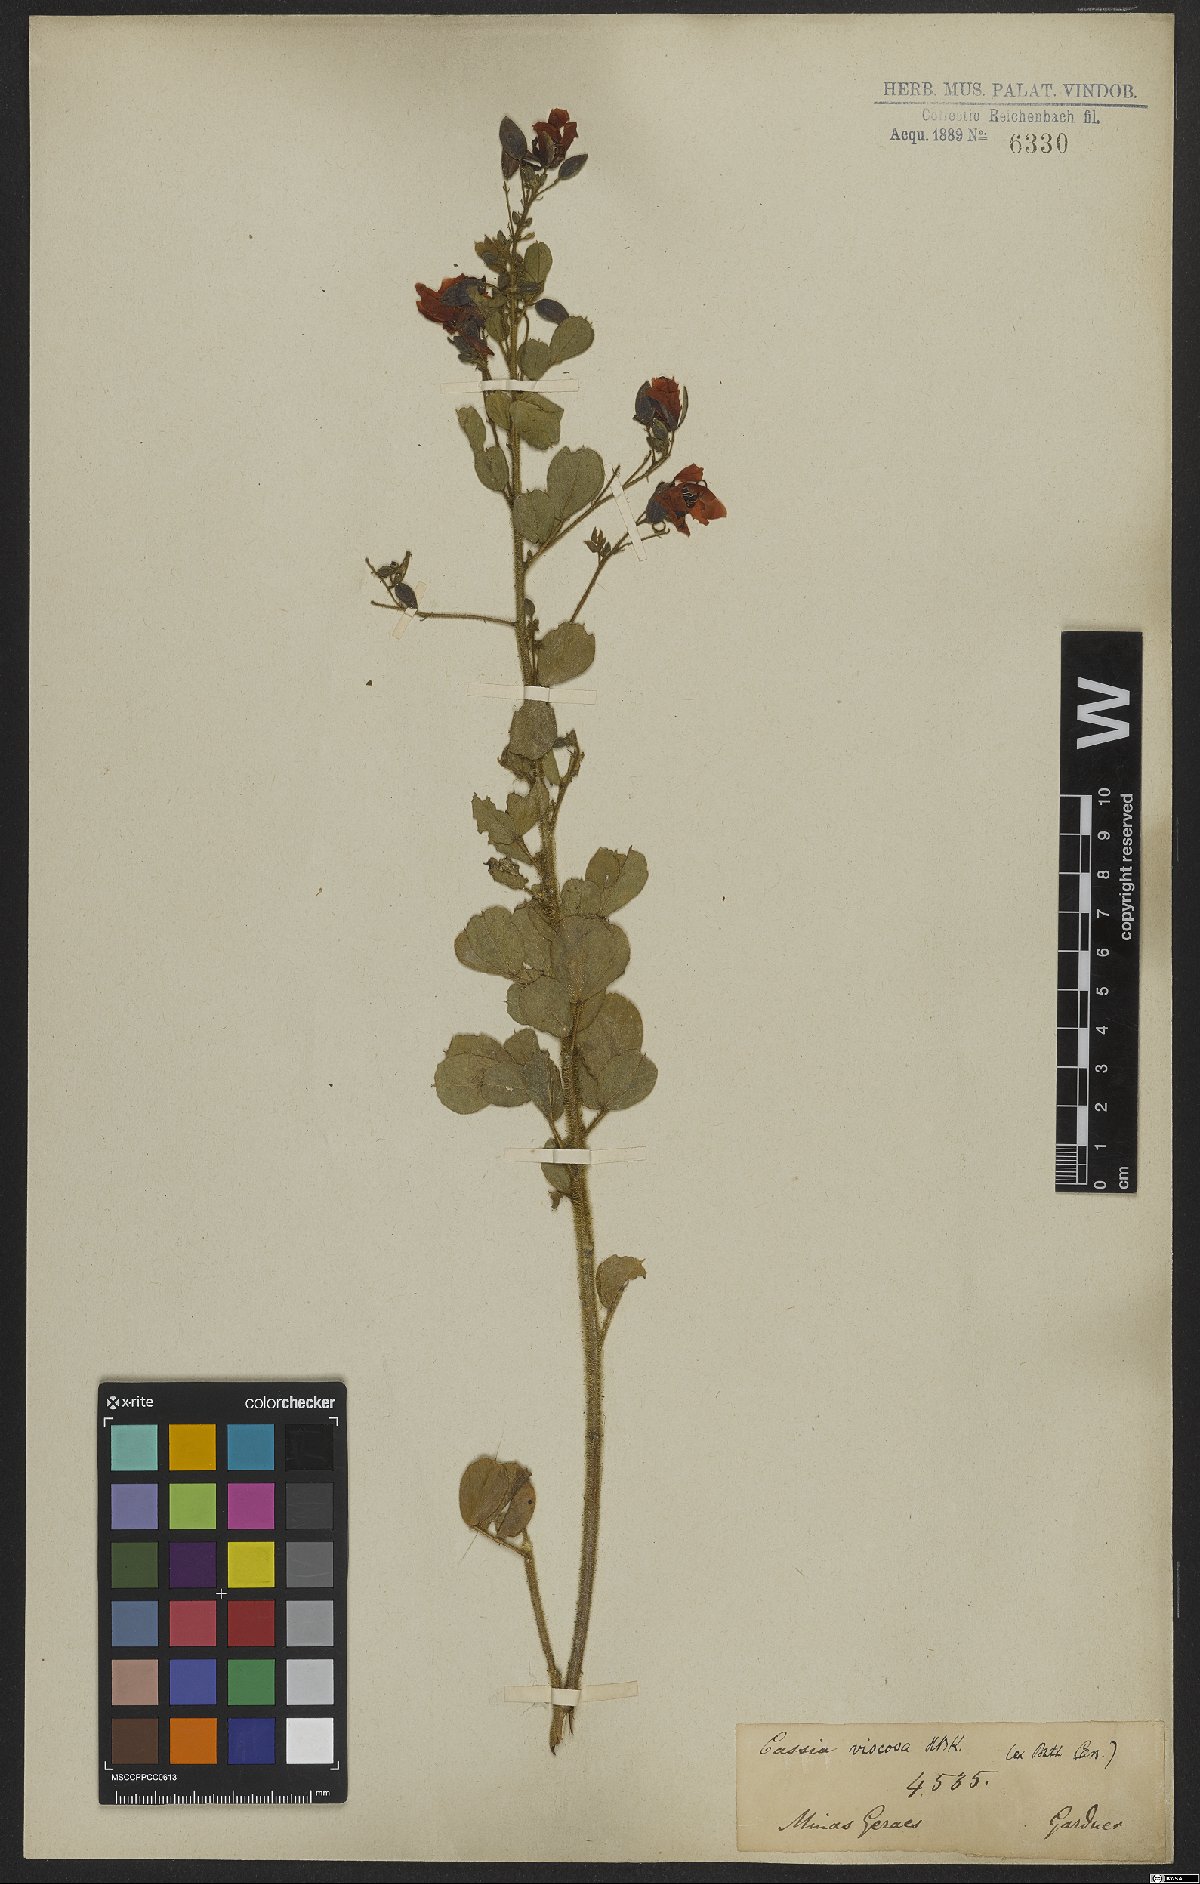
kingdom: Plantae
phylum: Tracheophyta
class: Magnoliopsida
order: Fabales
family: Fabaceae
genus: Chamaecrista
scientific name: Chamaecrista viscosa
